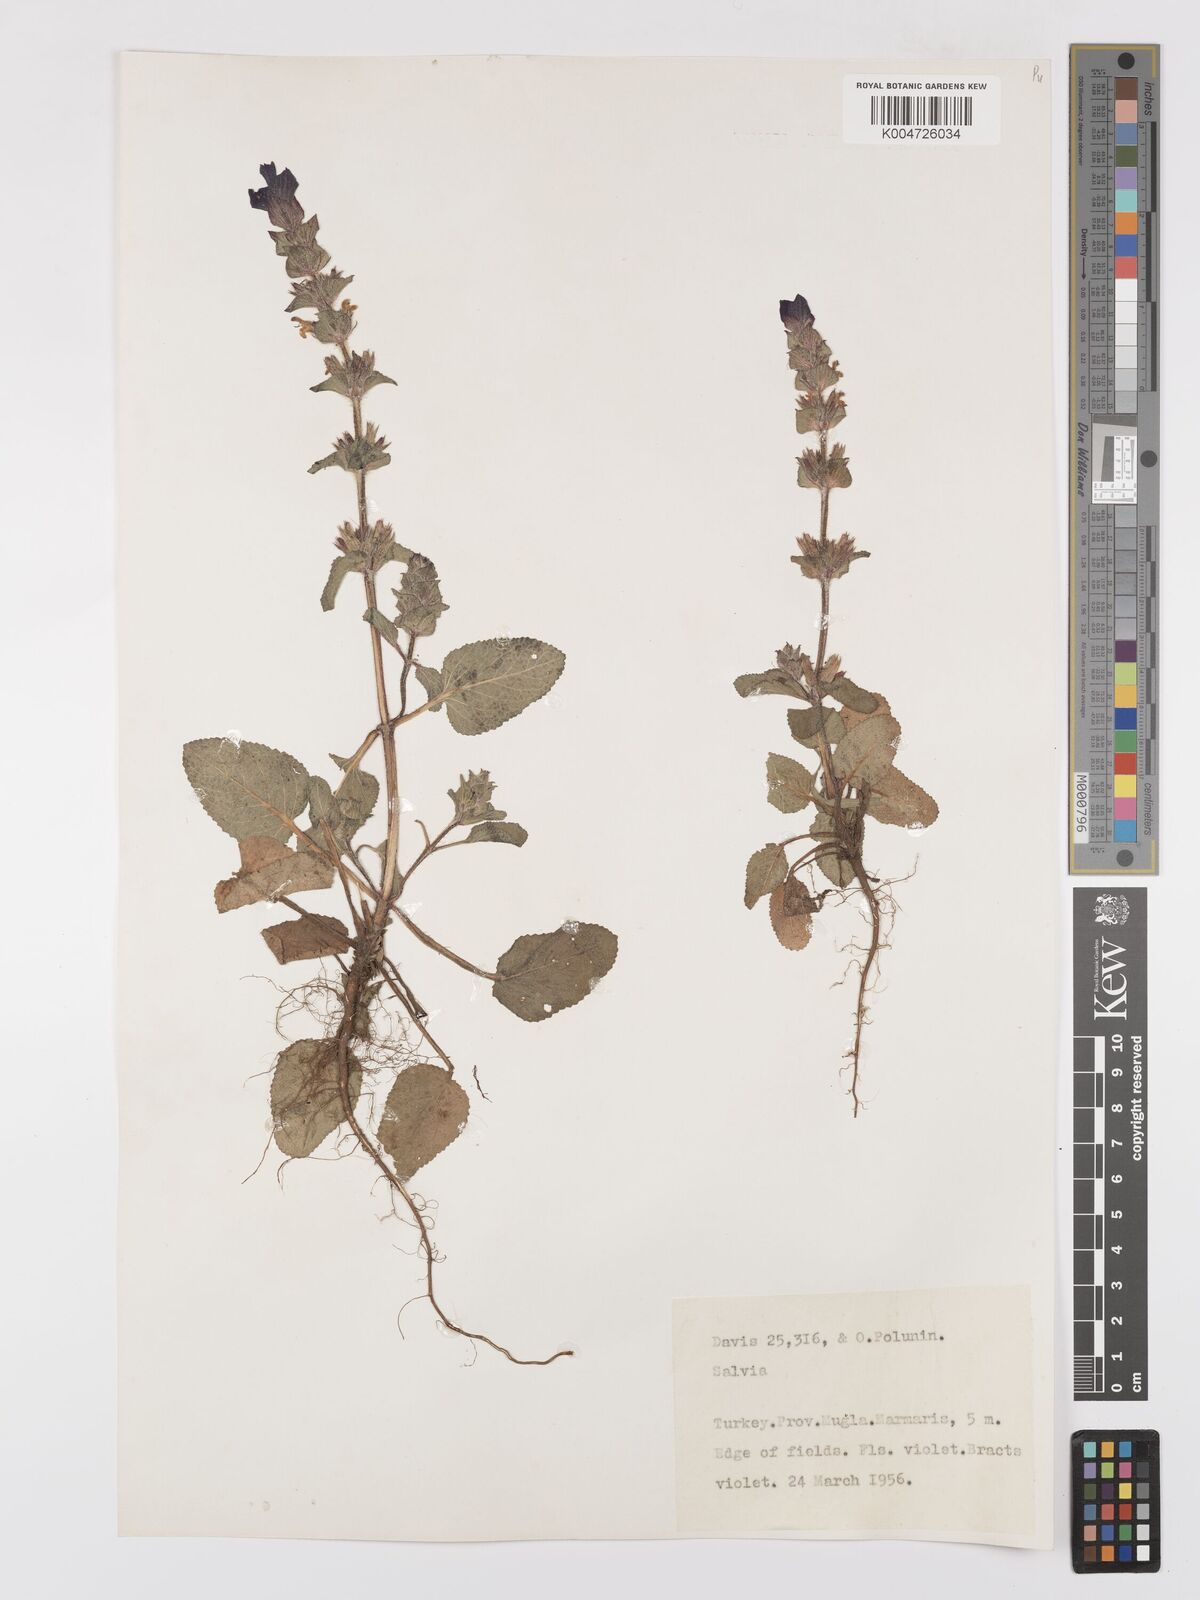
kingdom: Plantae
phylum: Tracheophyta
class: Magnoliopsida
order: Lamiales
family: Lamiaceae
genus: Salvia
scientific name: Salvia viridis
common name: Annual clary
